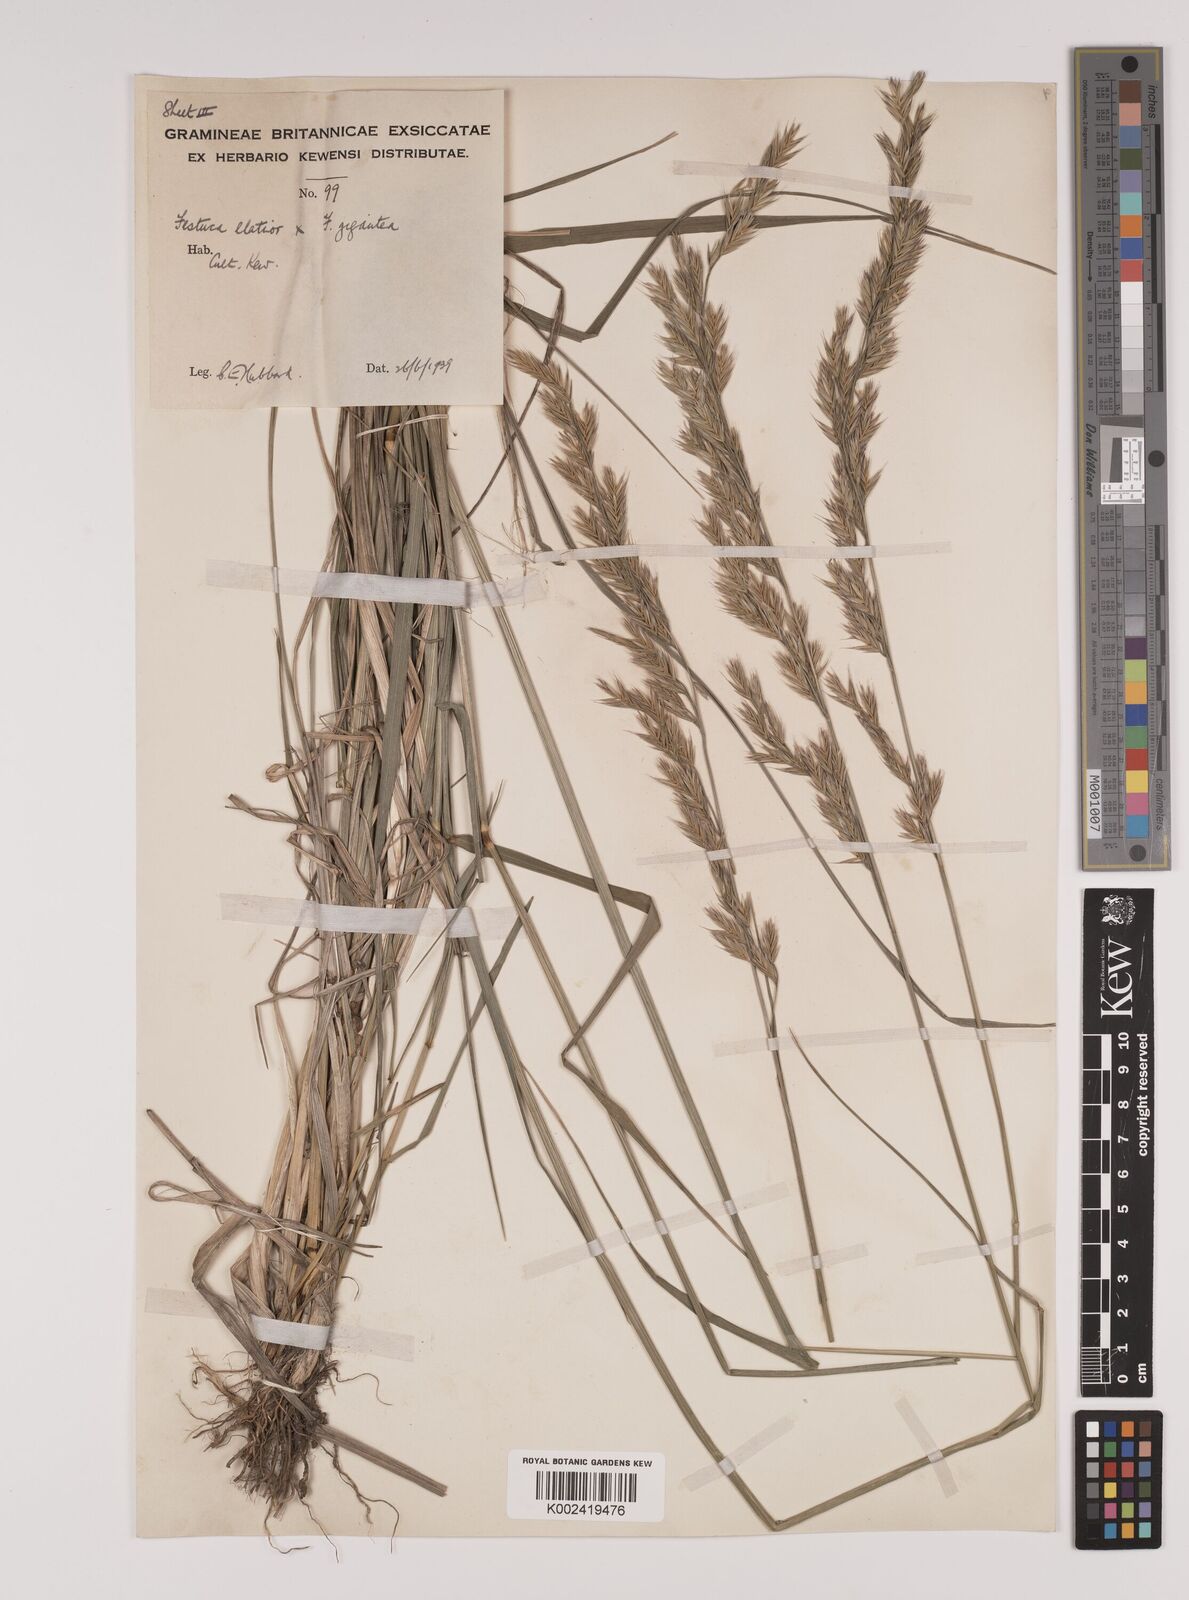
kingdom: Plantae
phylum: Tracheophyta
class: Liliopsida
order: Poales
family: Poaceae
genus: Lolium
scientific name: Lolium giganteum
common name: Giant fescue
